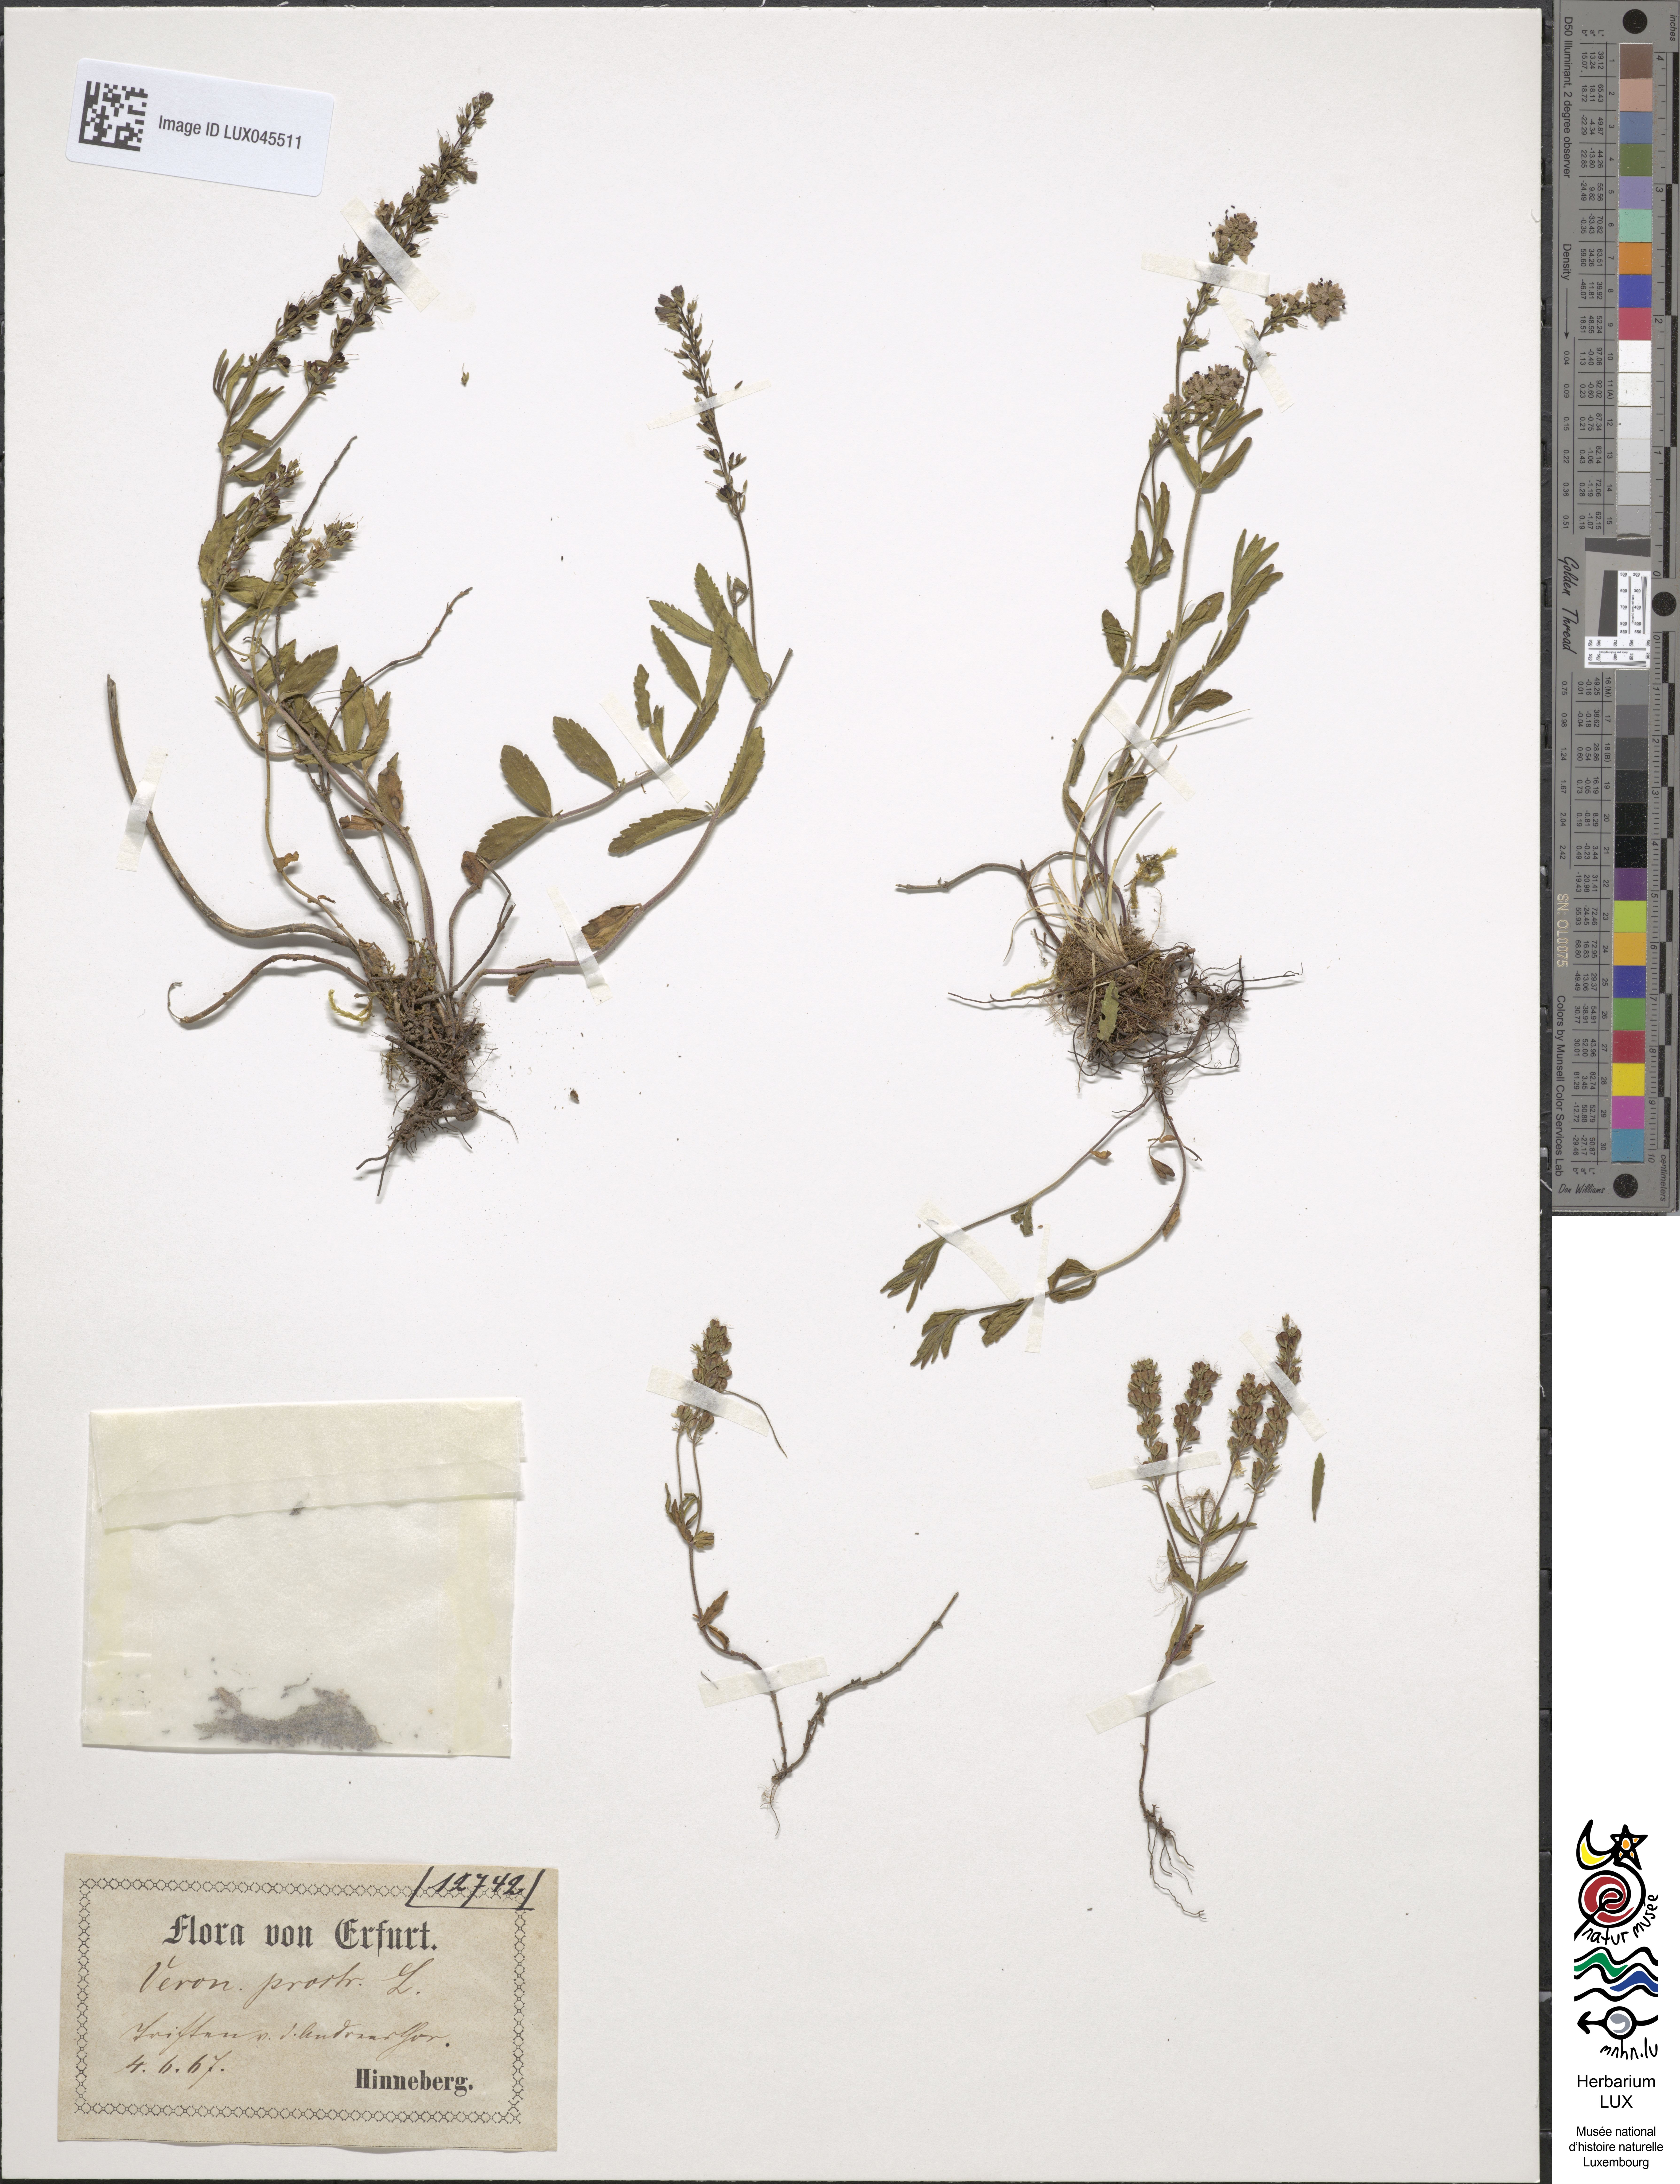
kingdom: Plantae
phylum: Tracheophyta
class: Magnoliopsida
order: Lamiales
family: Plantaginaceae
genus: Veronica
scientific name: Veronica prostrata
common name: Prostrate speedwell
